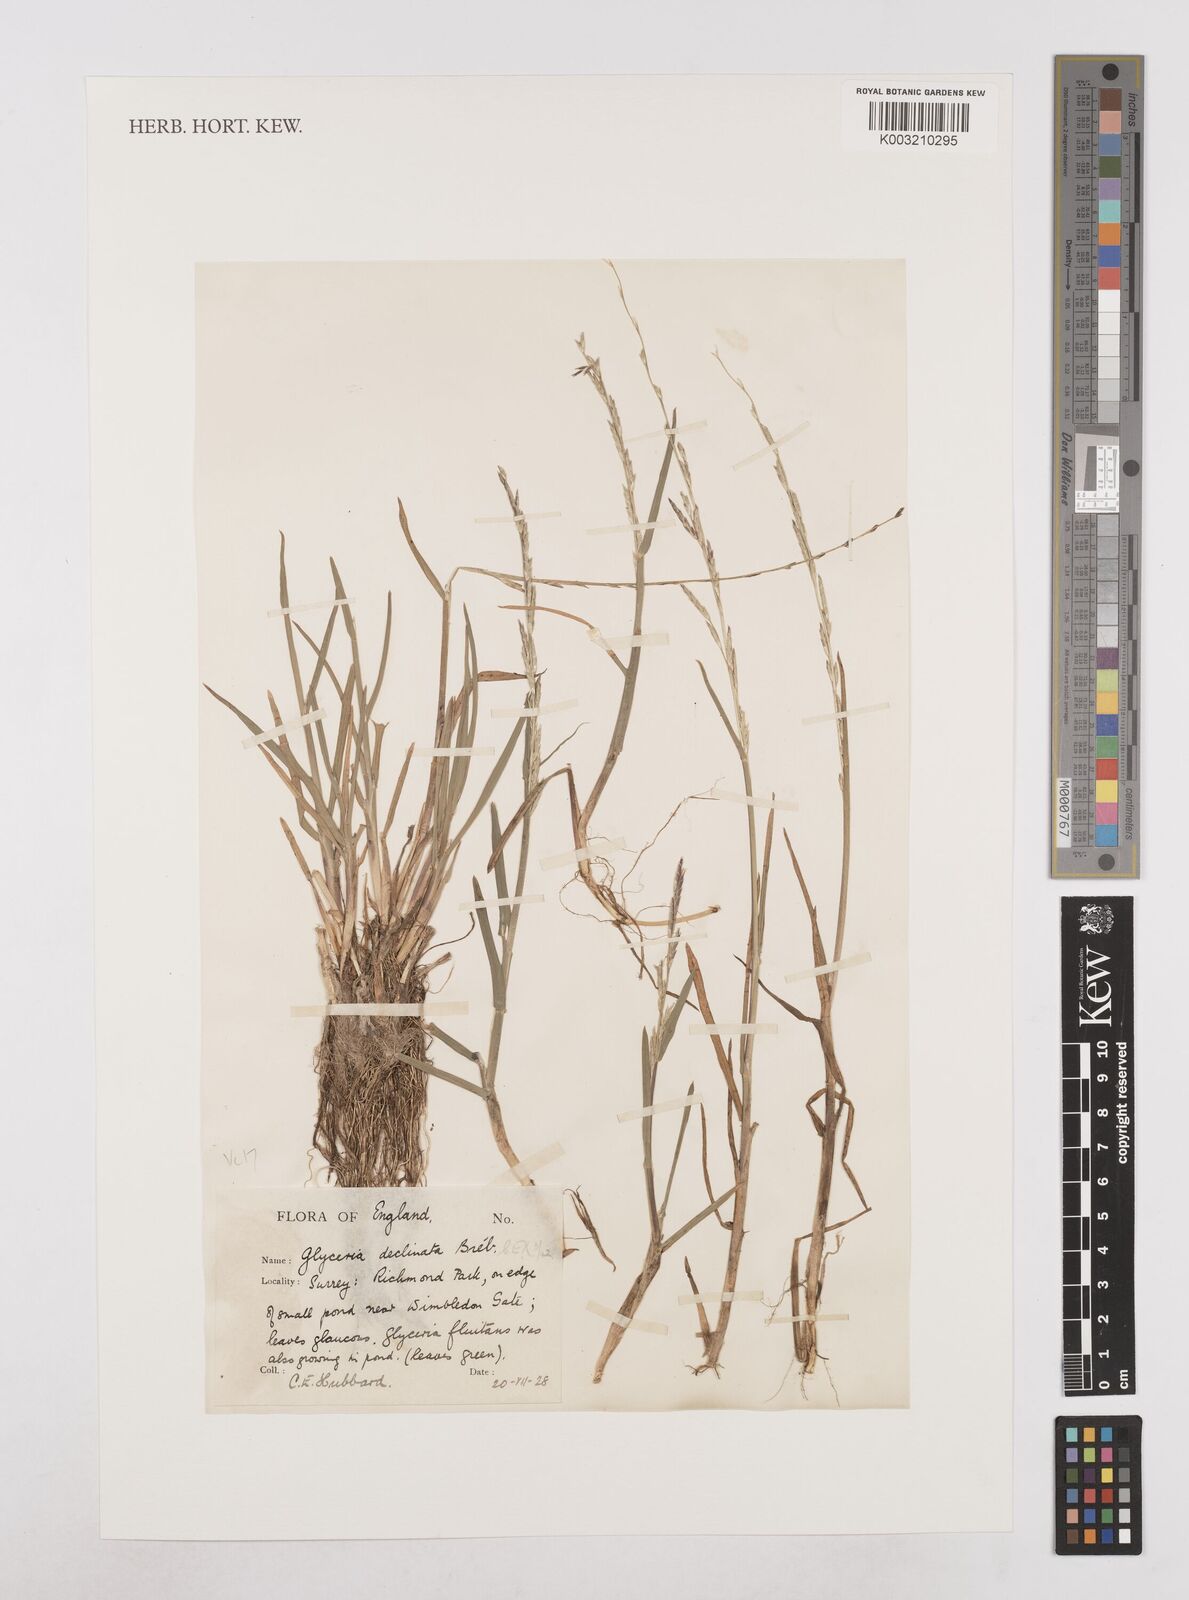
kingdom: Plantae
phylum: Tracheophyta
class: Liliopsida
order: Poales
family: Poaceae
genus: Glyceria
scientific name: Glyceria declinata
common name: Small sweet-grass
